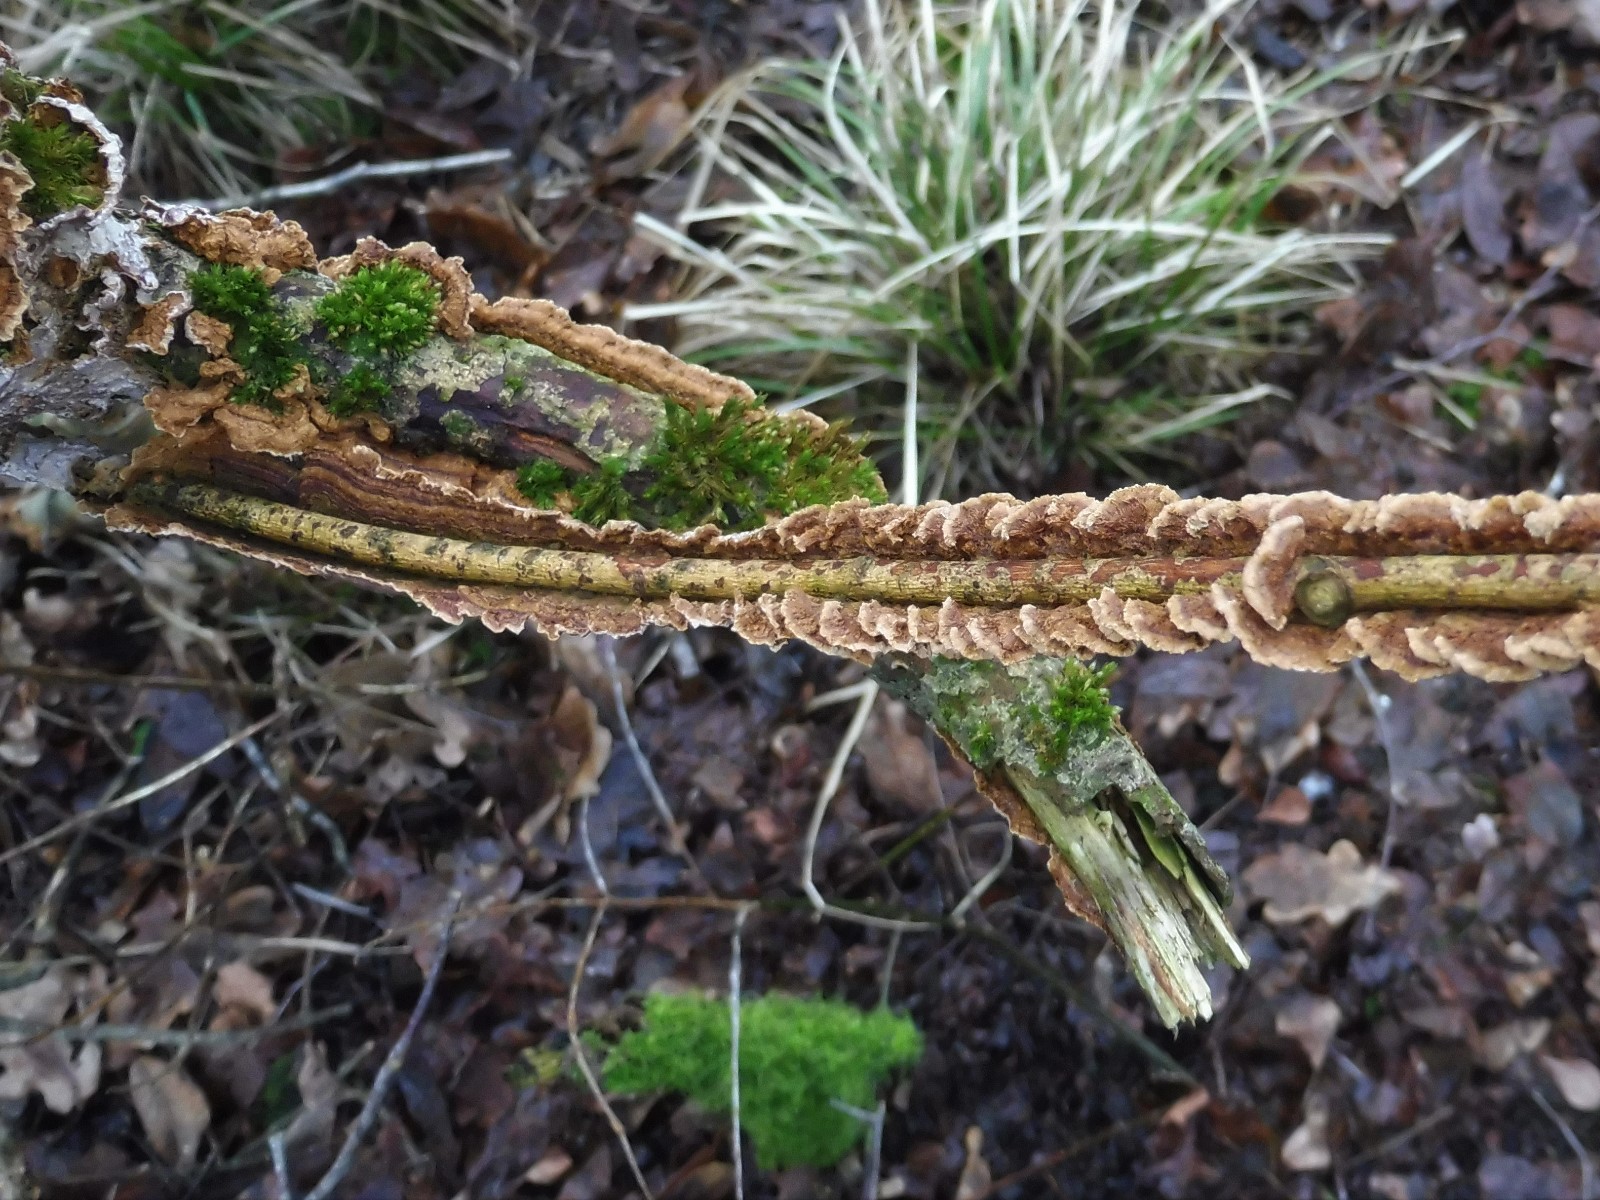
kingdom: Fungi
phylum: Basidiomycota
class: Agaricomycetes
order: Hymenochaetales
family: Hymenochaetaceae
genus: Hydnoporia
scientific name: Hydnoporia tabacina
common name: tobaksbrun ruslædersvamp
